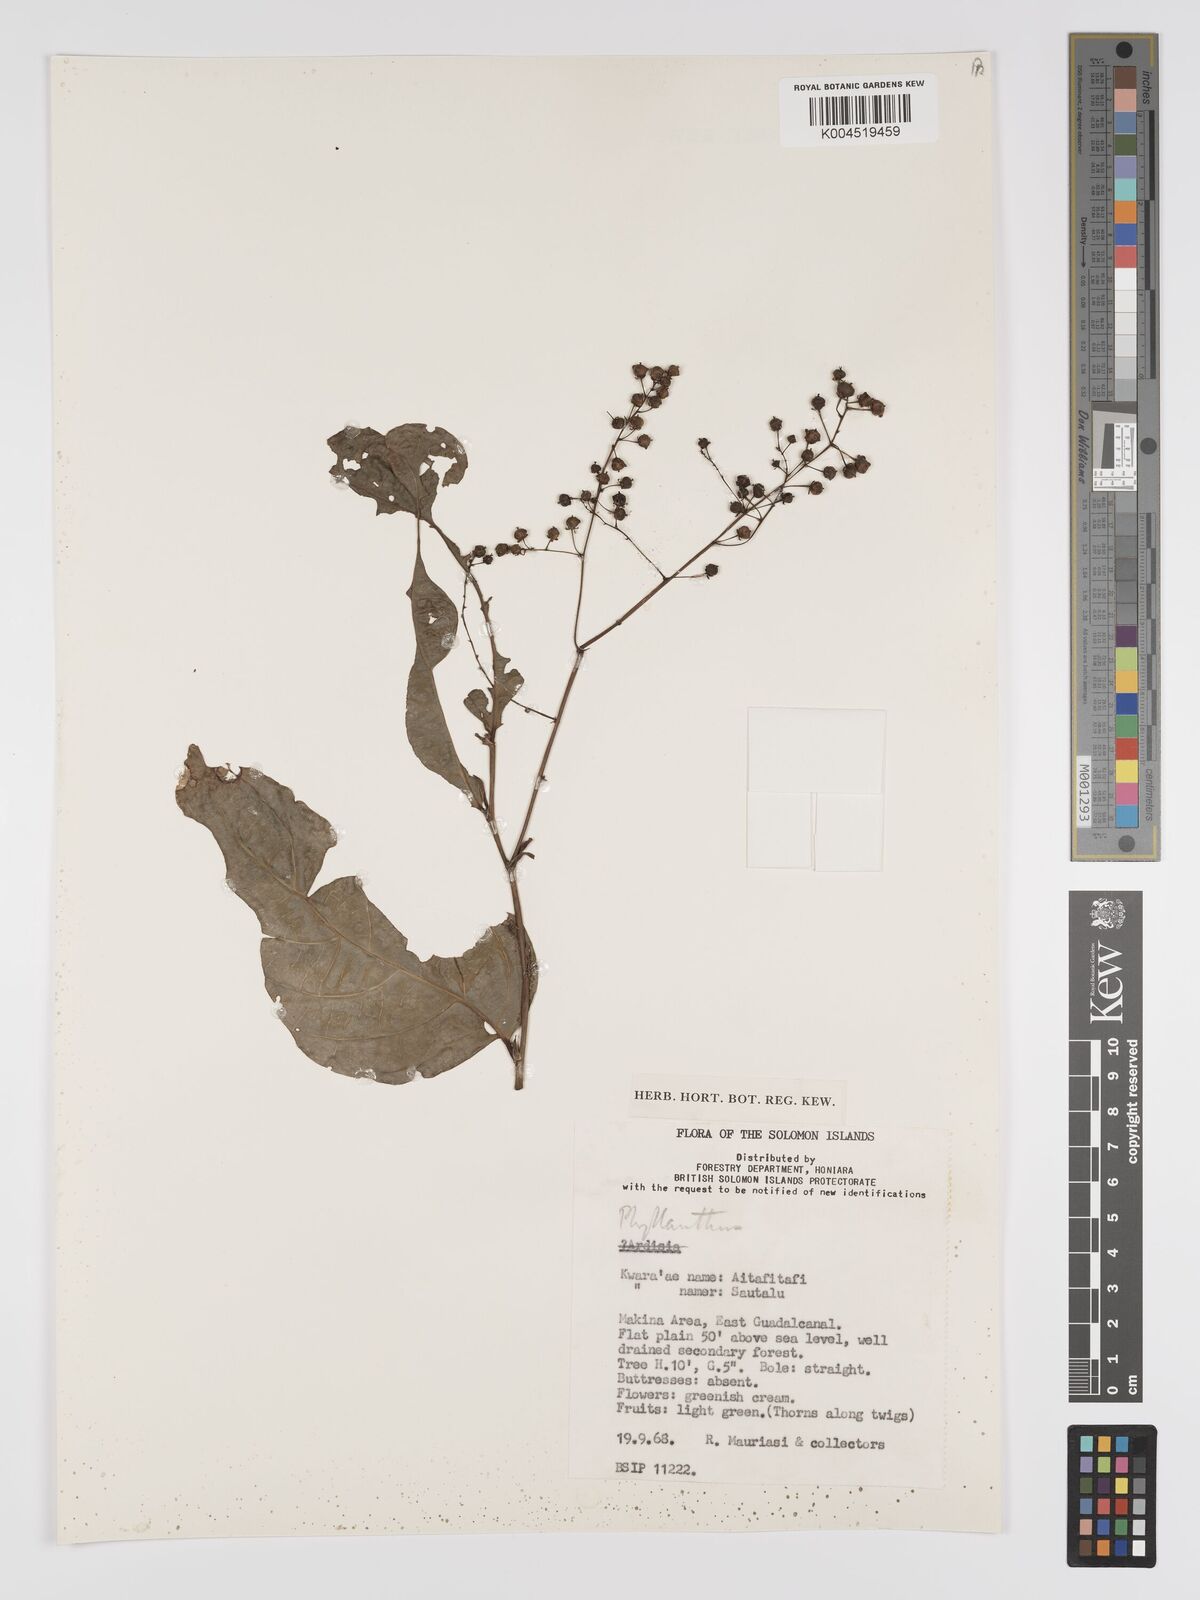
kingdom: Plantae
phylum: Tracheophyta
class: Magnoliopsida
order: Malpighiales
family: Phyllanthaceae
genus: Phyllanthus
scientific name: Phyllanthus clamboides
